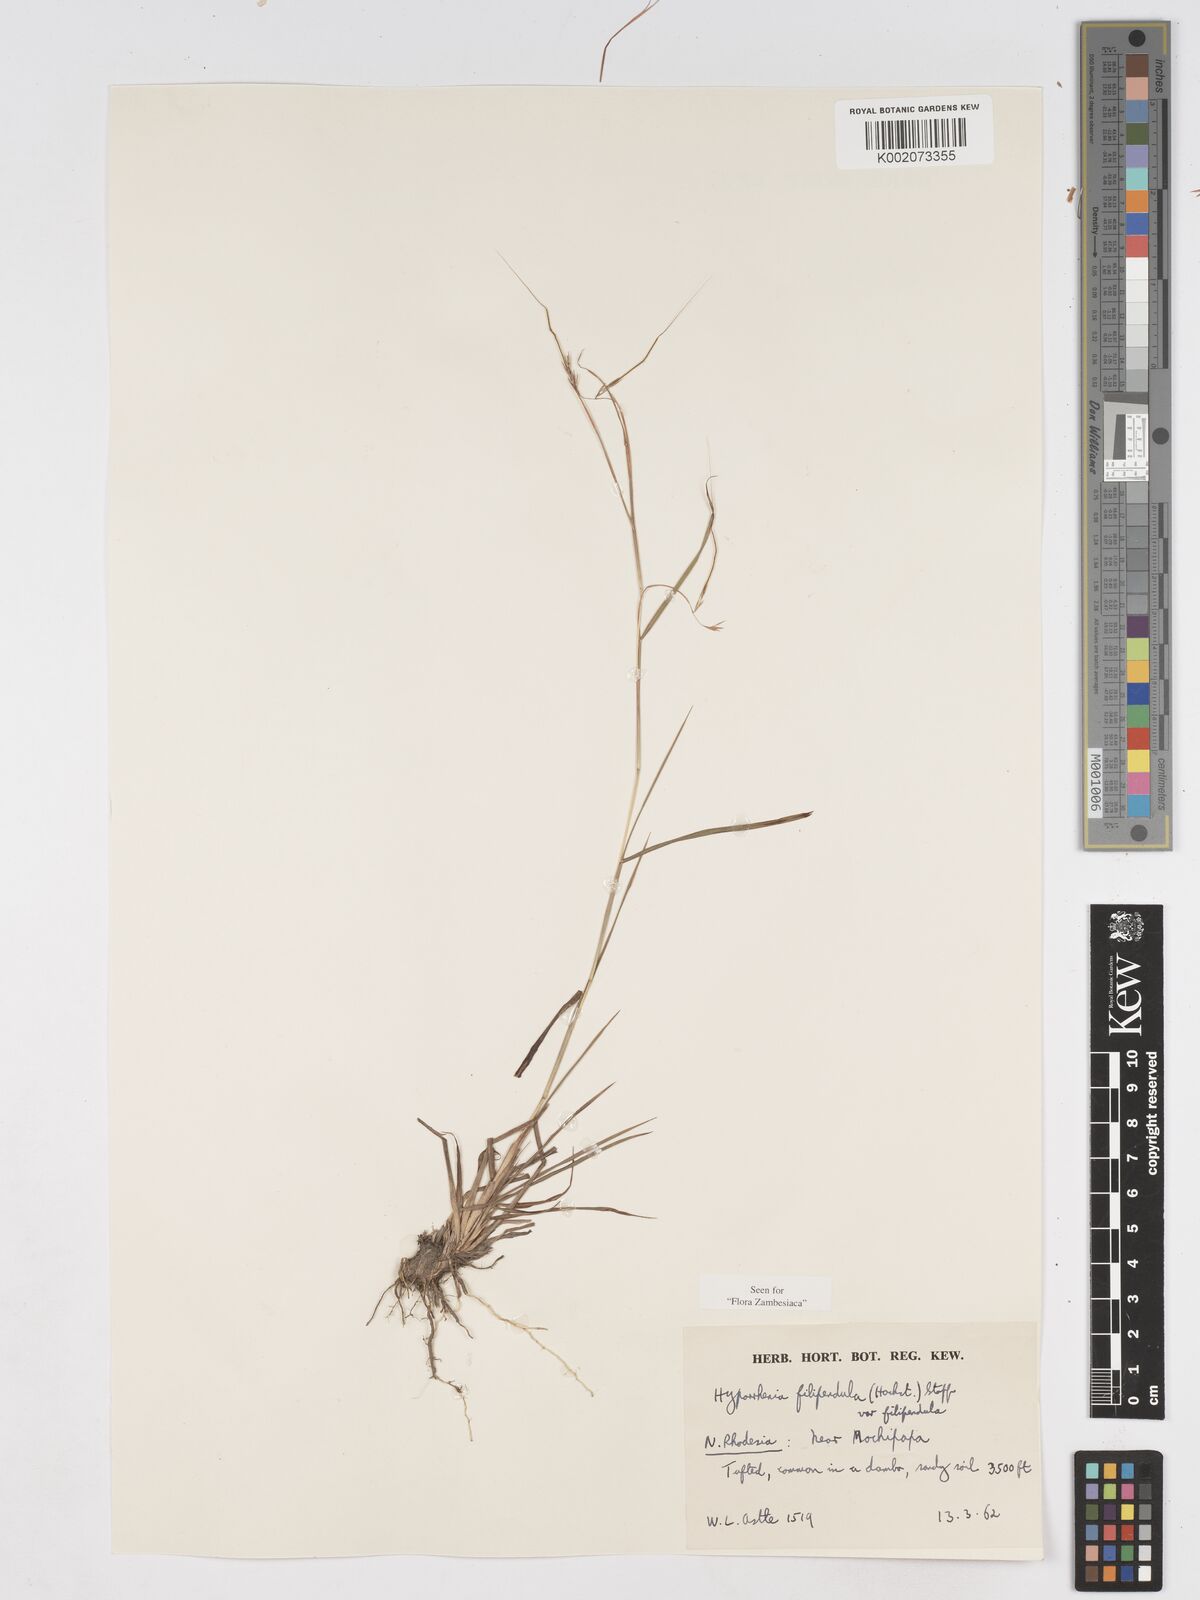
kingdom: Plantae
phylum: Tracheophyta
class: Liliopsida
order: Poales
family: Poaceae
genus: Hyparrhenia
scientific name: Hyparrhenia filipendula
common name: Tambookie grass
